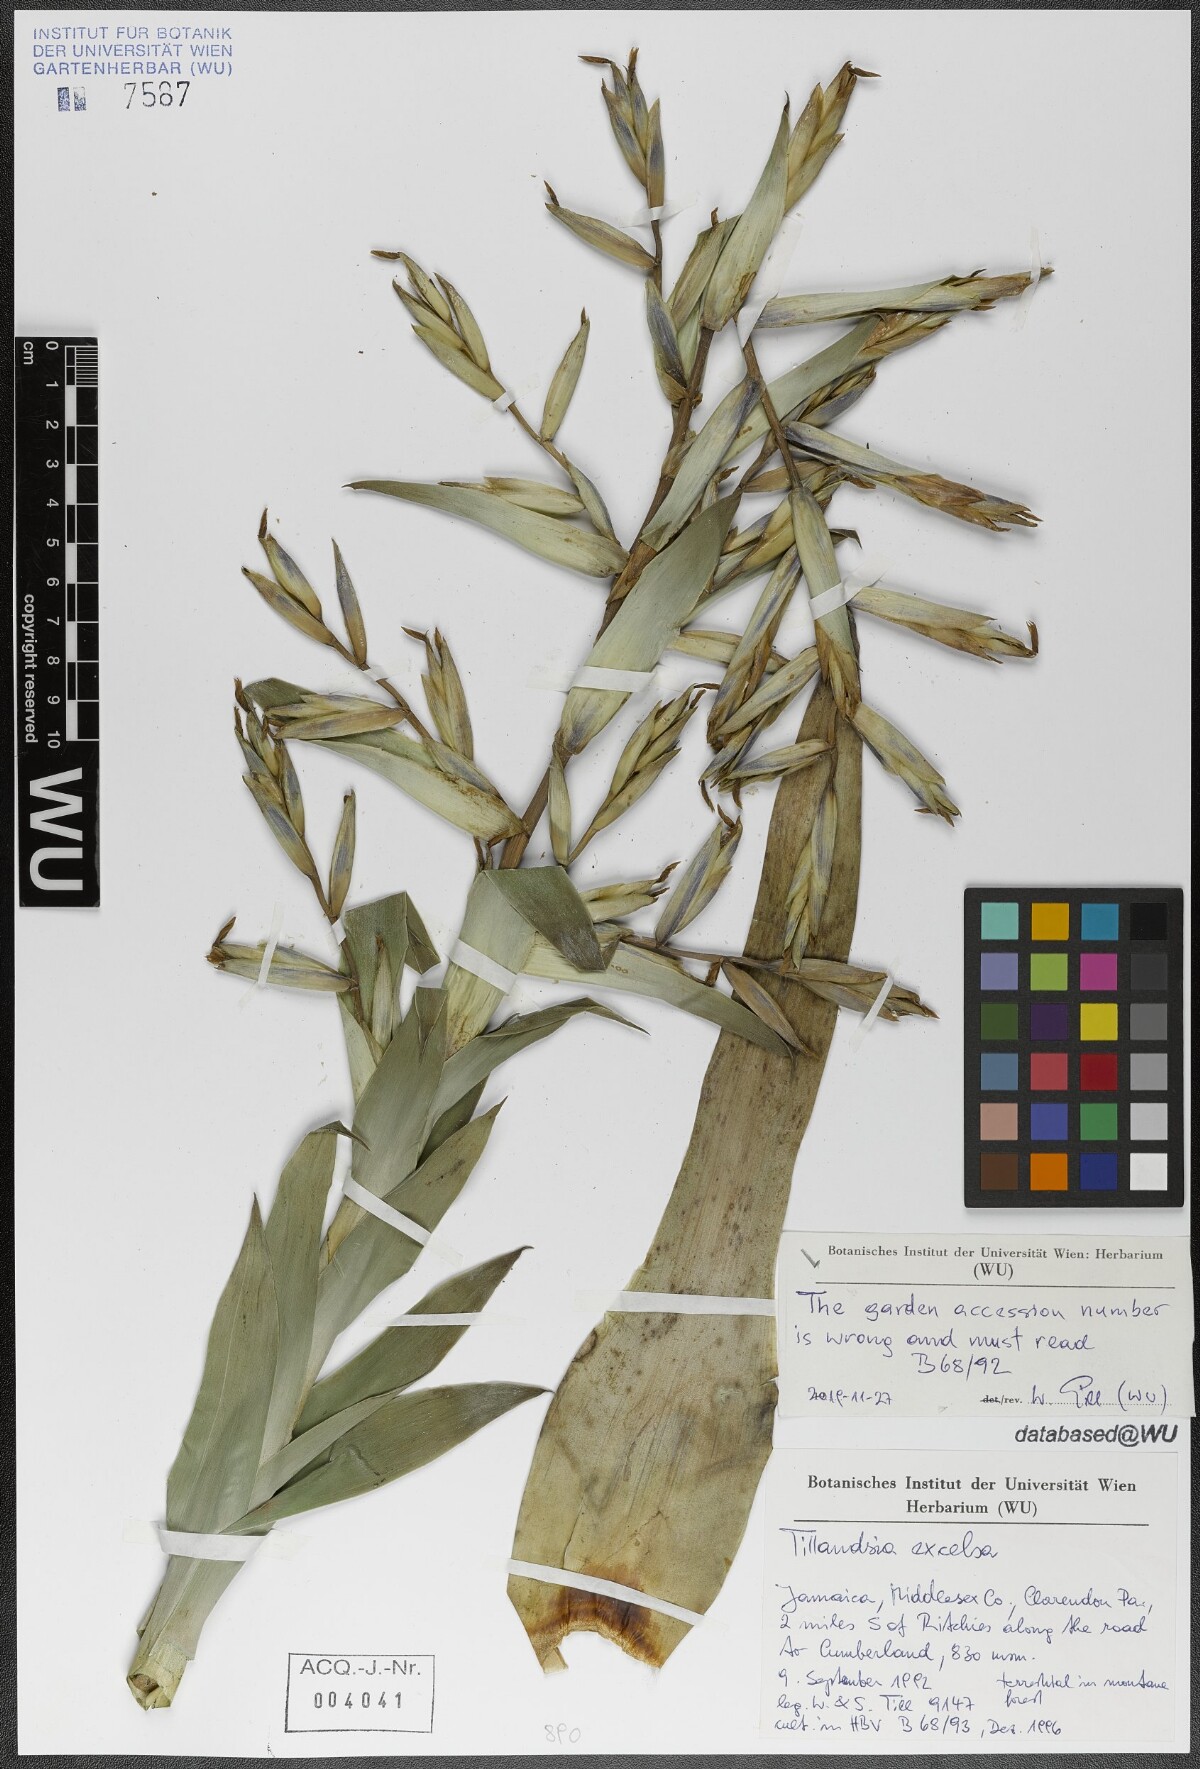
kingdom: Plantae
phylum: Tracheophyta
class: Liliopsida
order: Poales
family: Bromeliaceae
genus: Tillandsia
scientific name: Tillandsia excelsa
